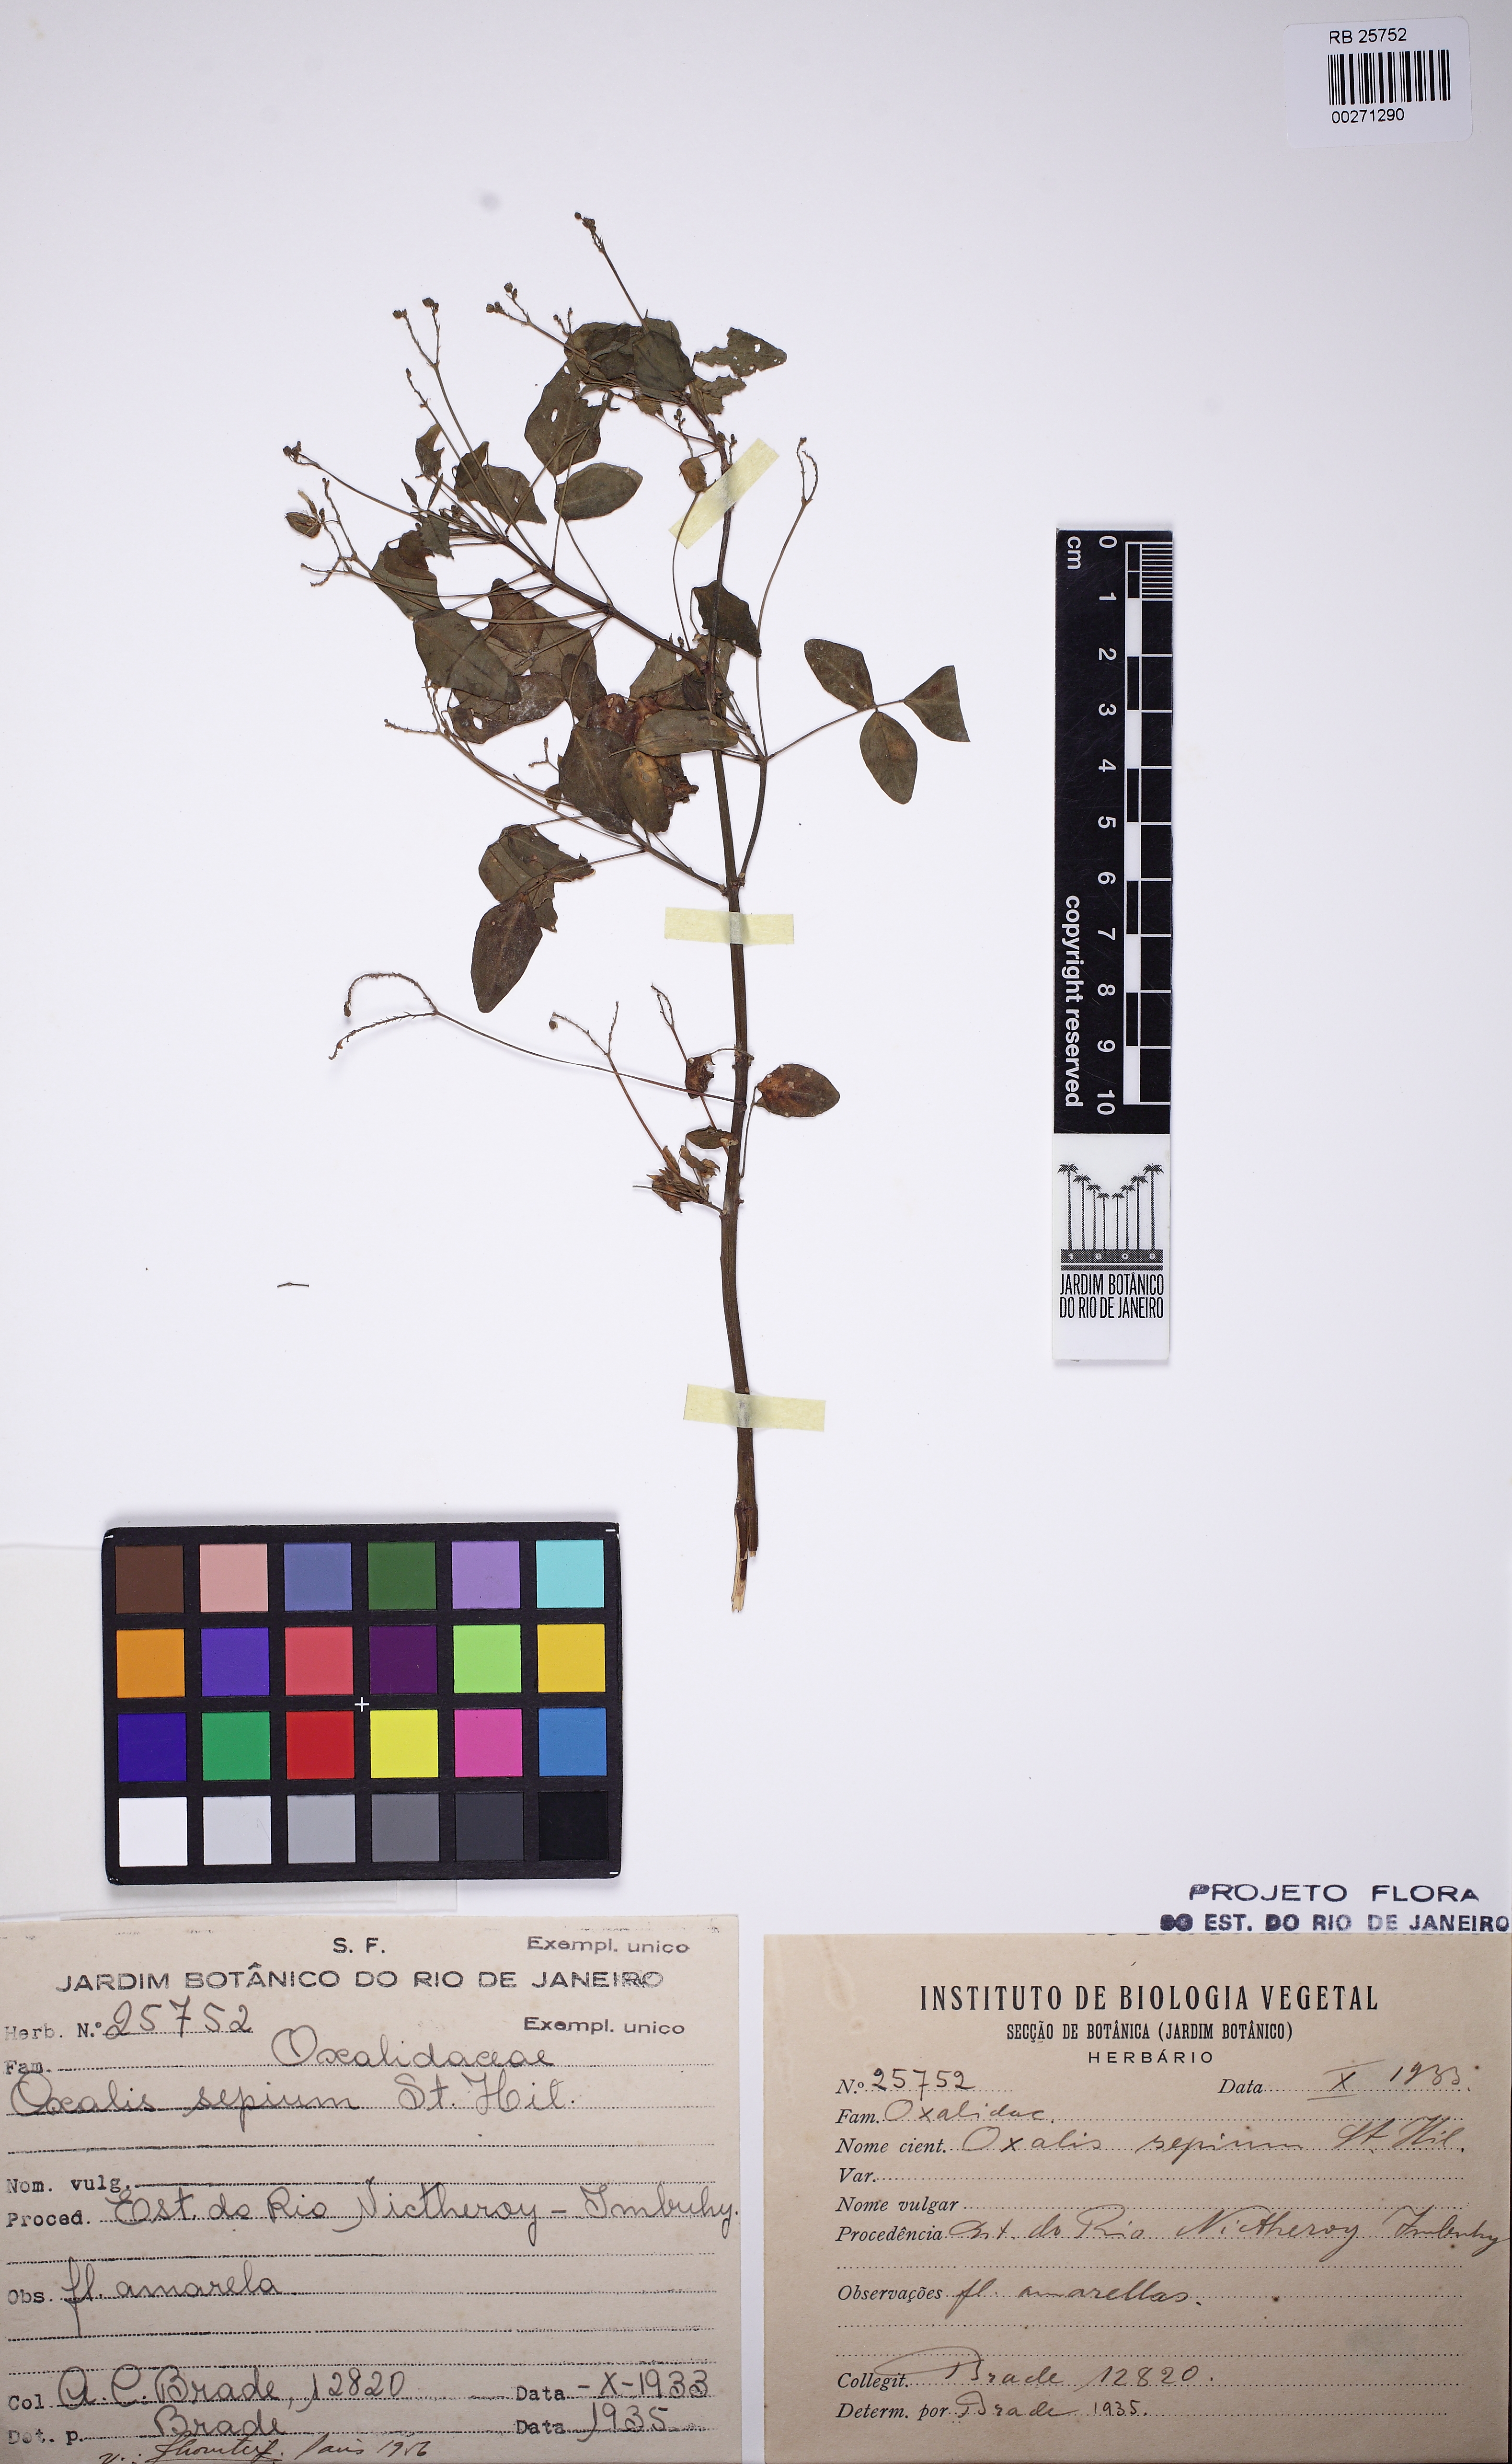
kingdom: Plantae
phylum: Tracheophyta
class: Magnoliopsida
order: Oxalidales
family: Oxalidaceae
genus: Oxalis
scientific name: Oxalis sepium
